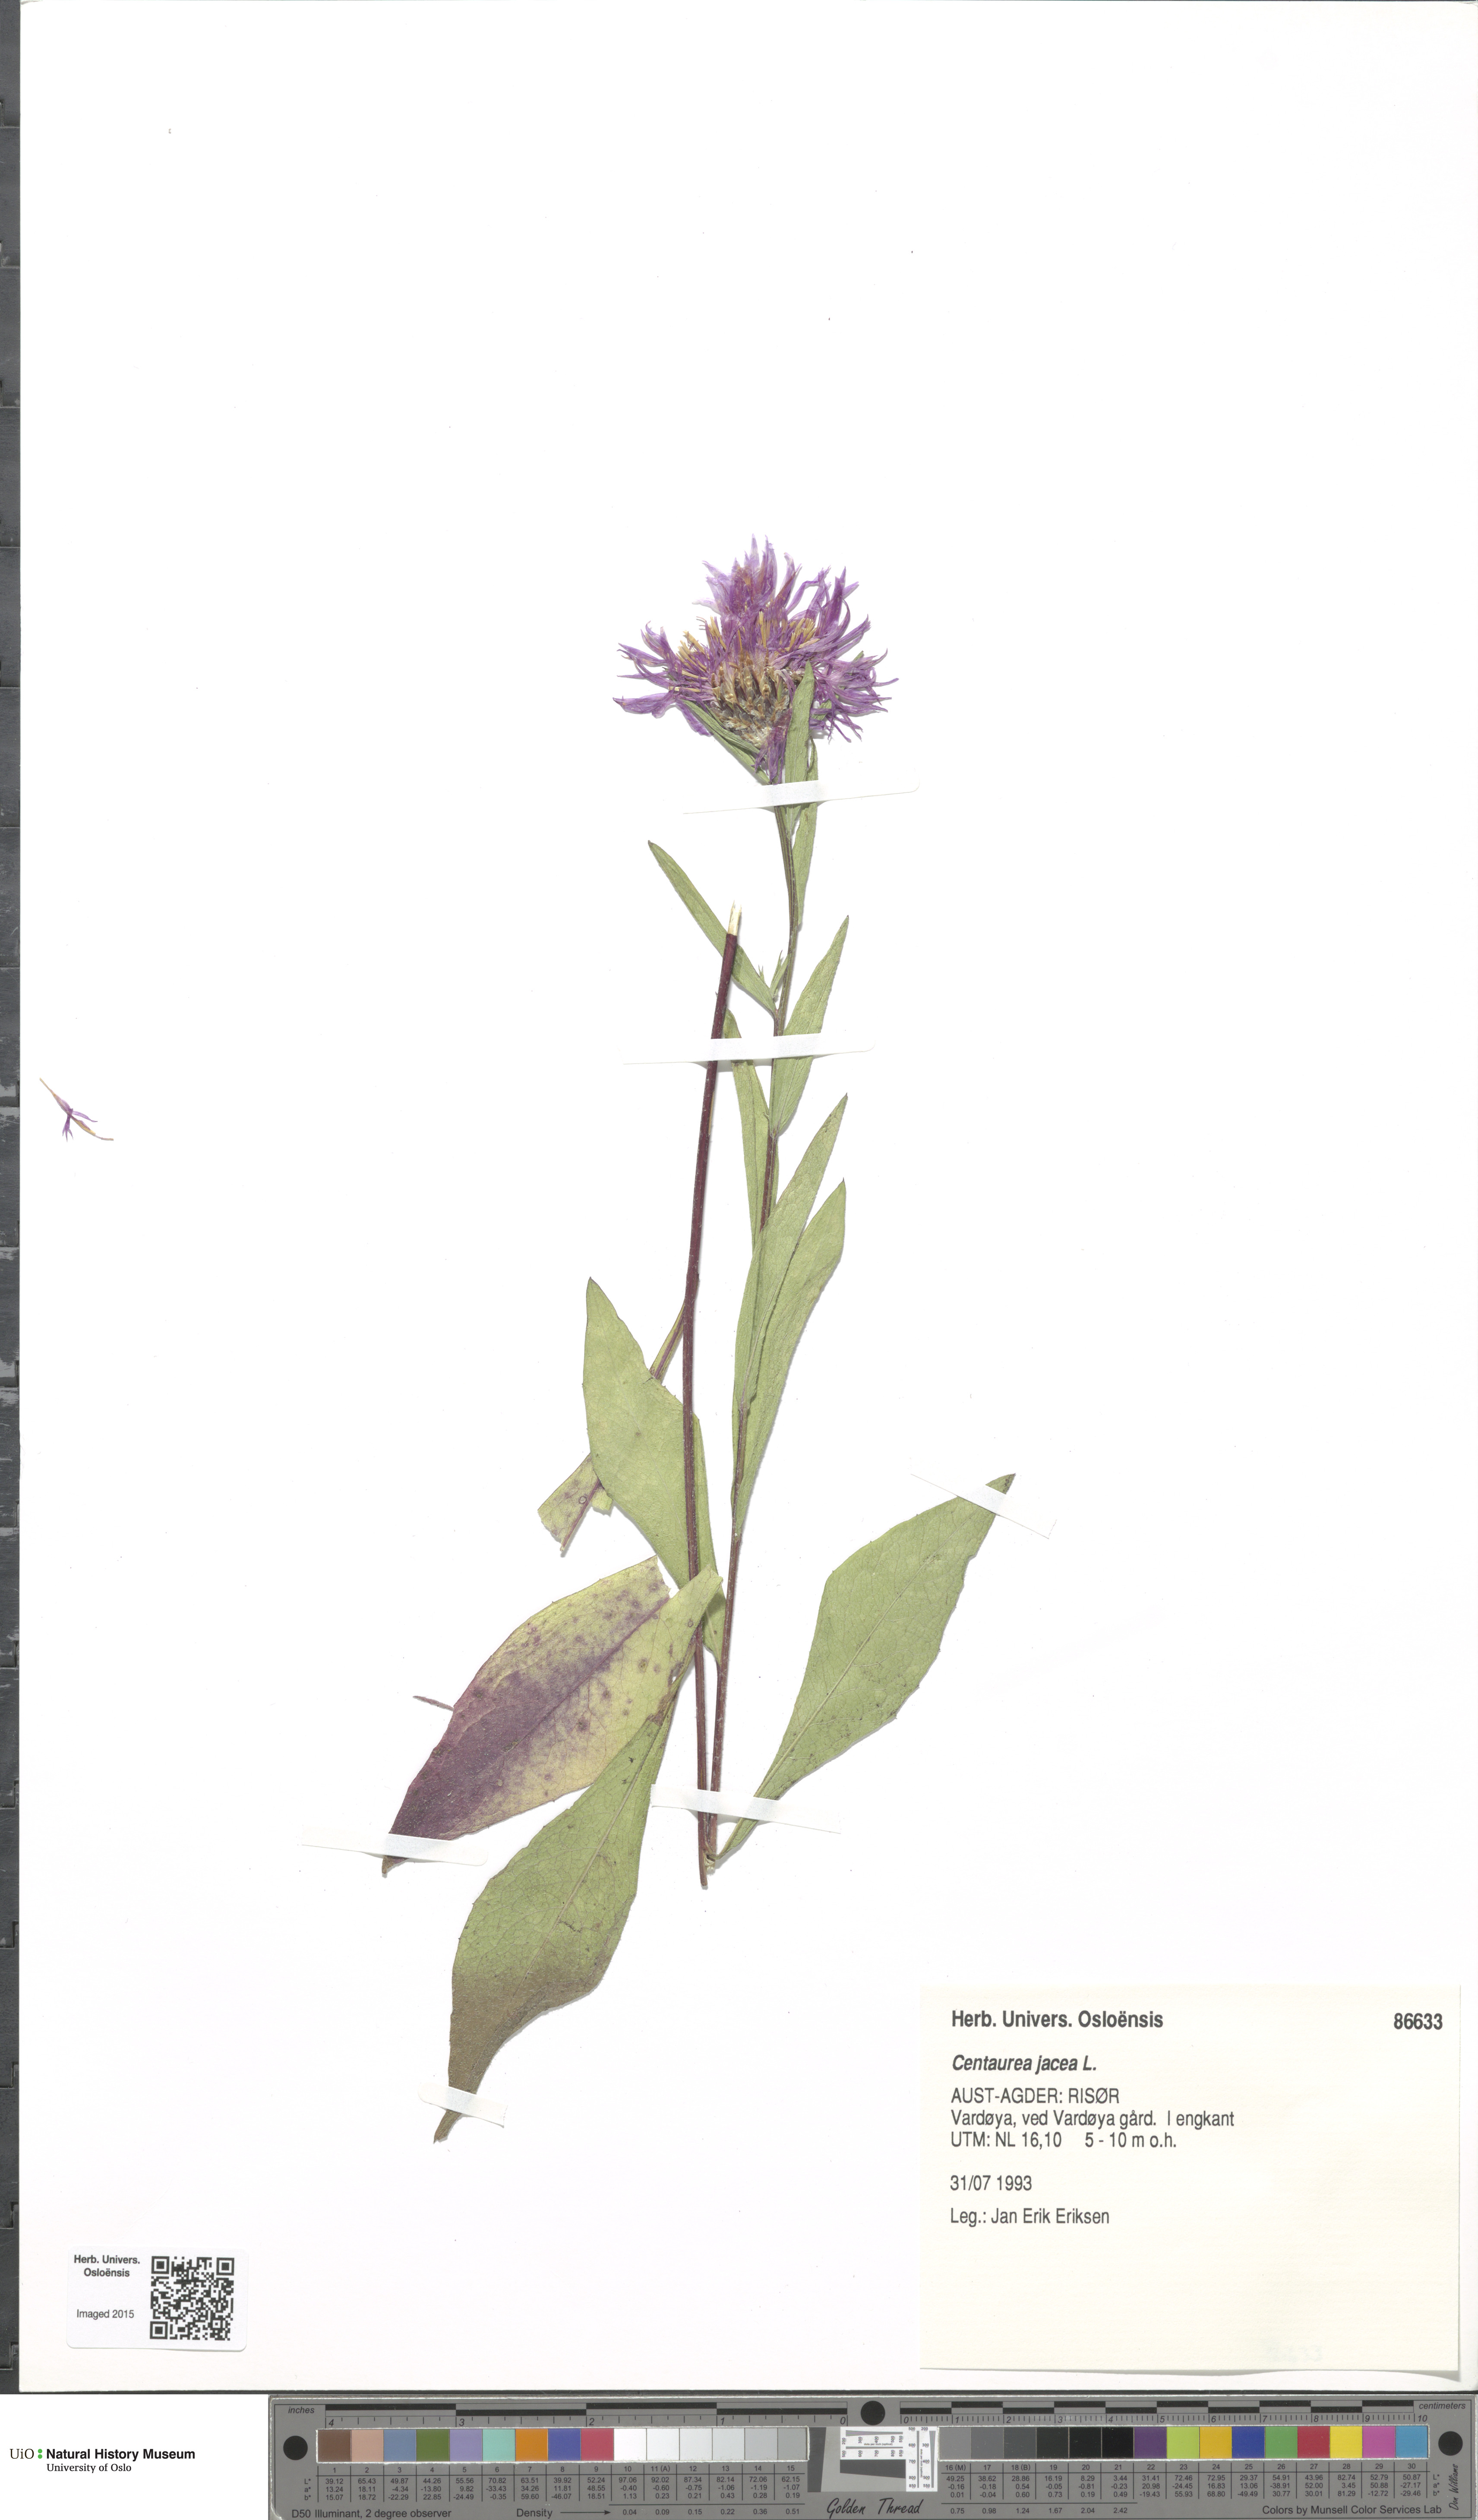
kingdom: Plantae
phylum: Tracheophyta
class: Magnoliopsida
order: Asterales
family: Asteraceae
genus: Centaurea
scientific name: Centaurea jacea
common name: Brown knapweed
